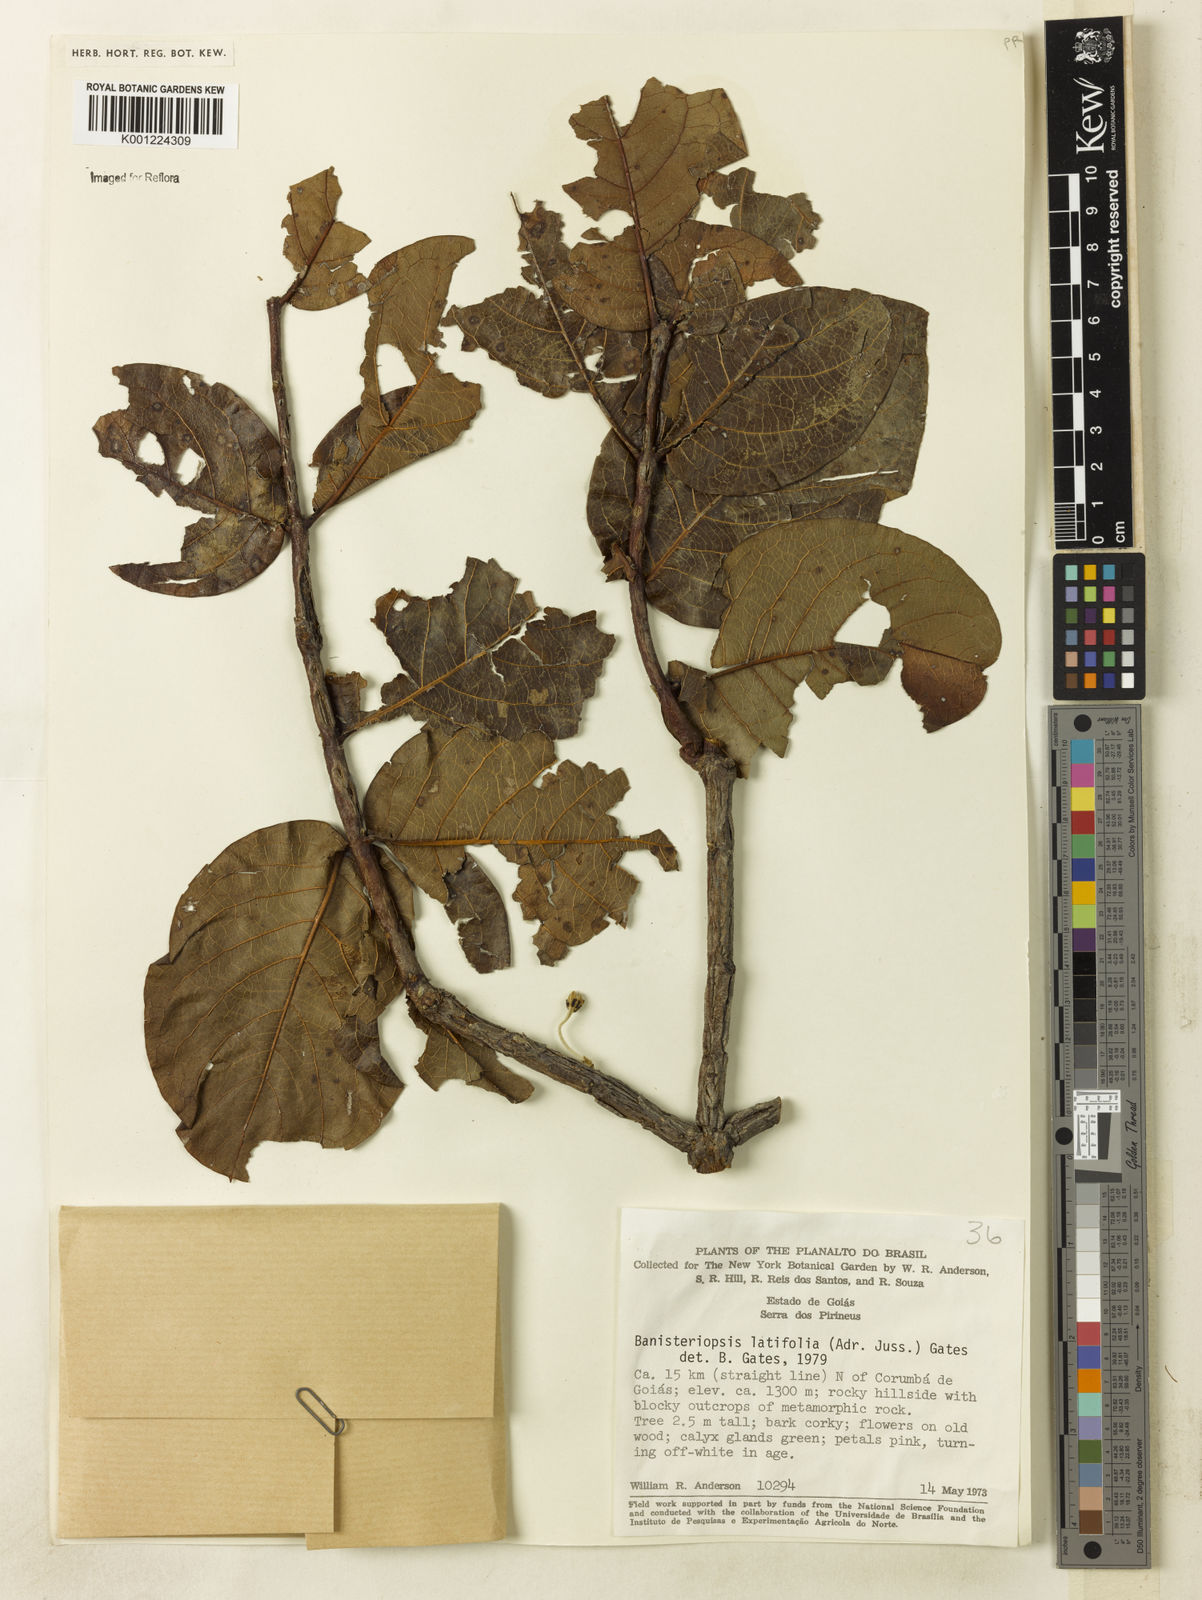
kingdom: Plantae
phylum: Tracheophyta
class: Magnoliopsida
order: Malpighiales
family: Malpighiaceae
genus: Banisteriopsis
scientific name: Banisteriopsis latifolia
